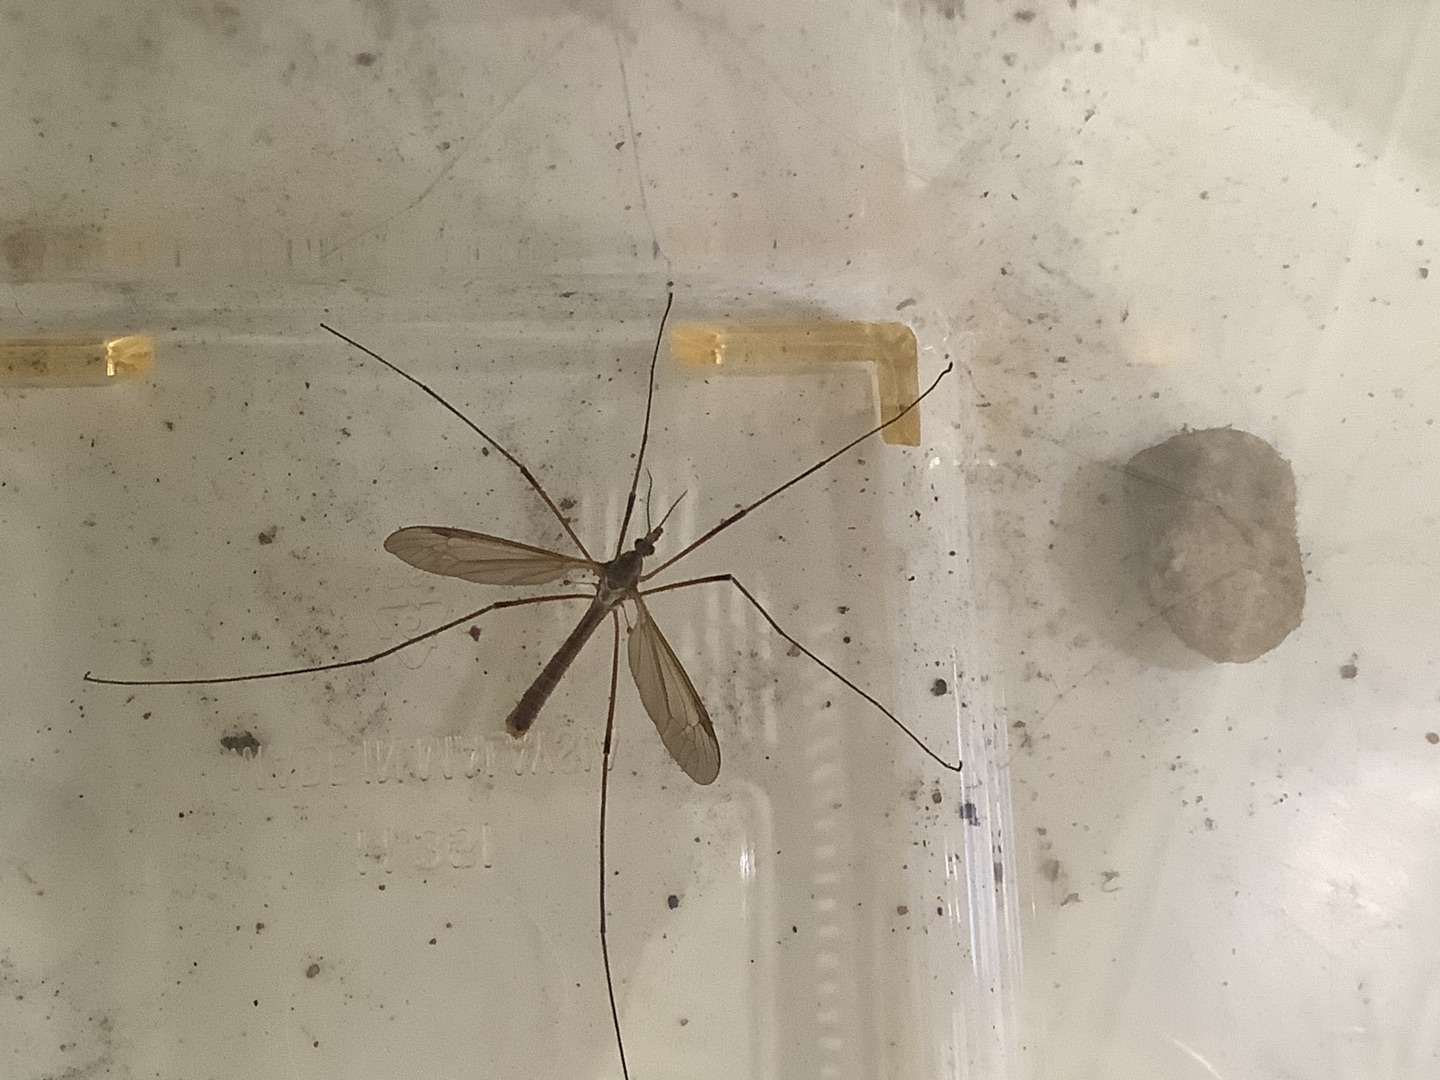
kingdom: Animalia
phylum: Arthropoda
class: Insecta
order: Diptera
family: Tipulidae
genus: Tipula
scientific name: Tipula
